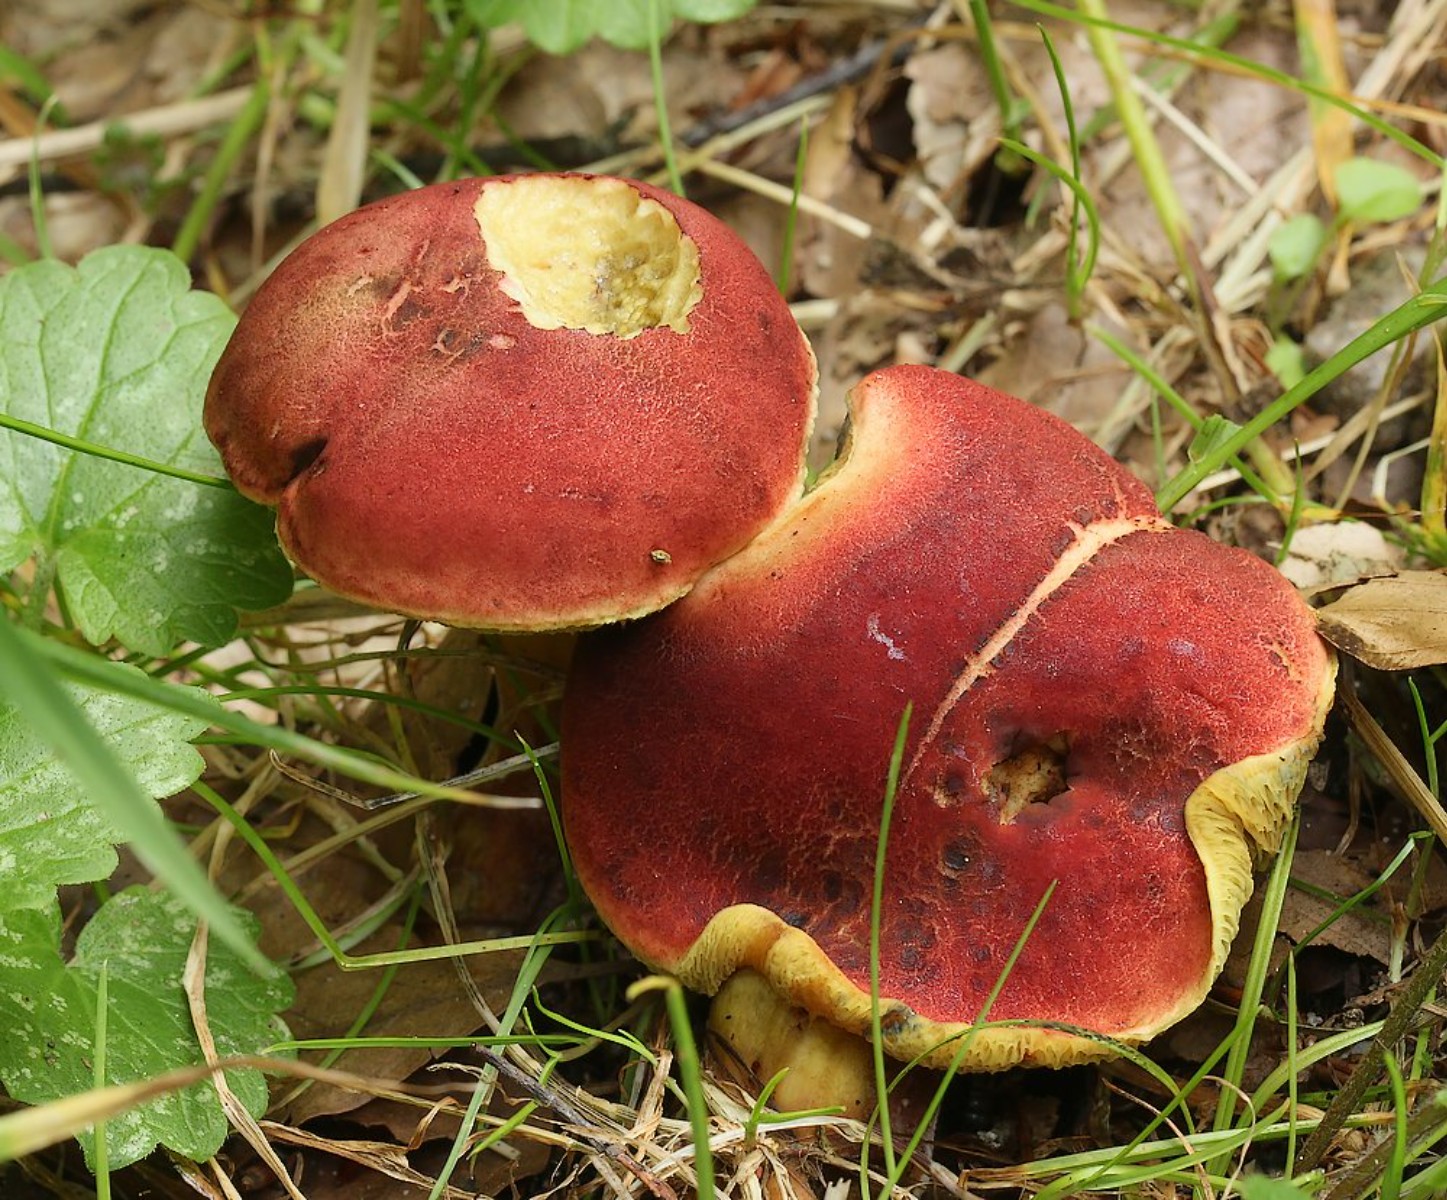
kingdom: Fungi
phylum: Basidiomycota
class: Agaricomycetes
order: Boletales
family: Boletaceae
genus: Hortiboletus
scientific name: Hortiboletus rubellus
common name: blodrød rørhat
